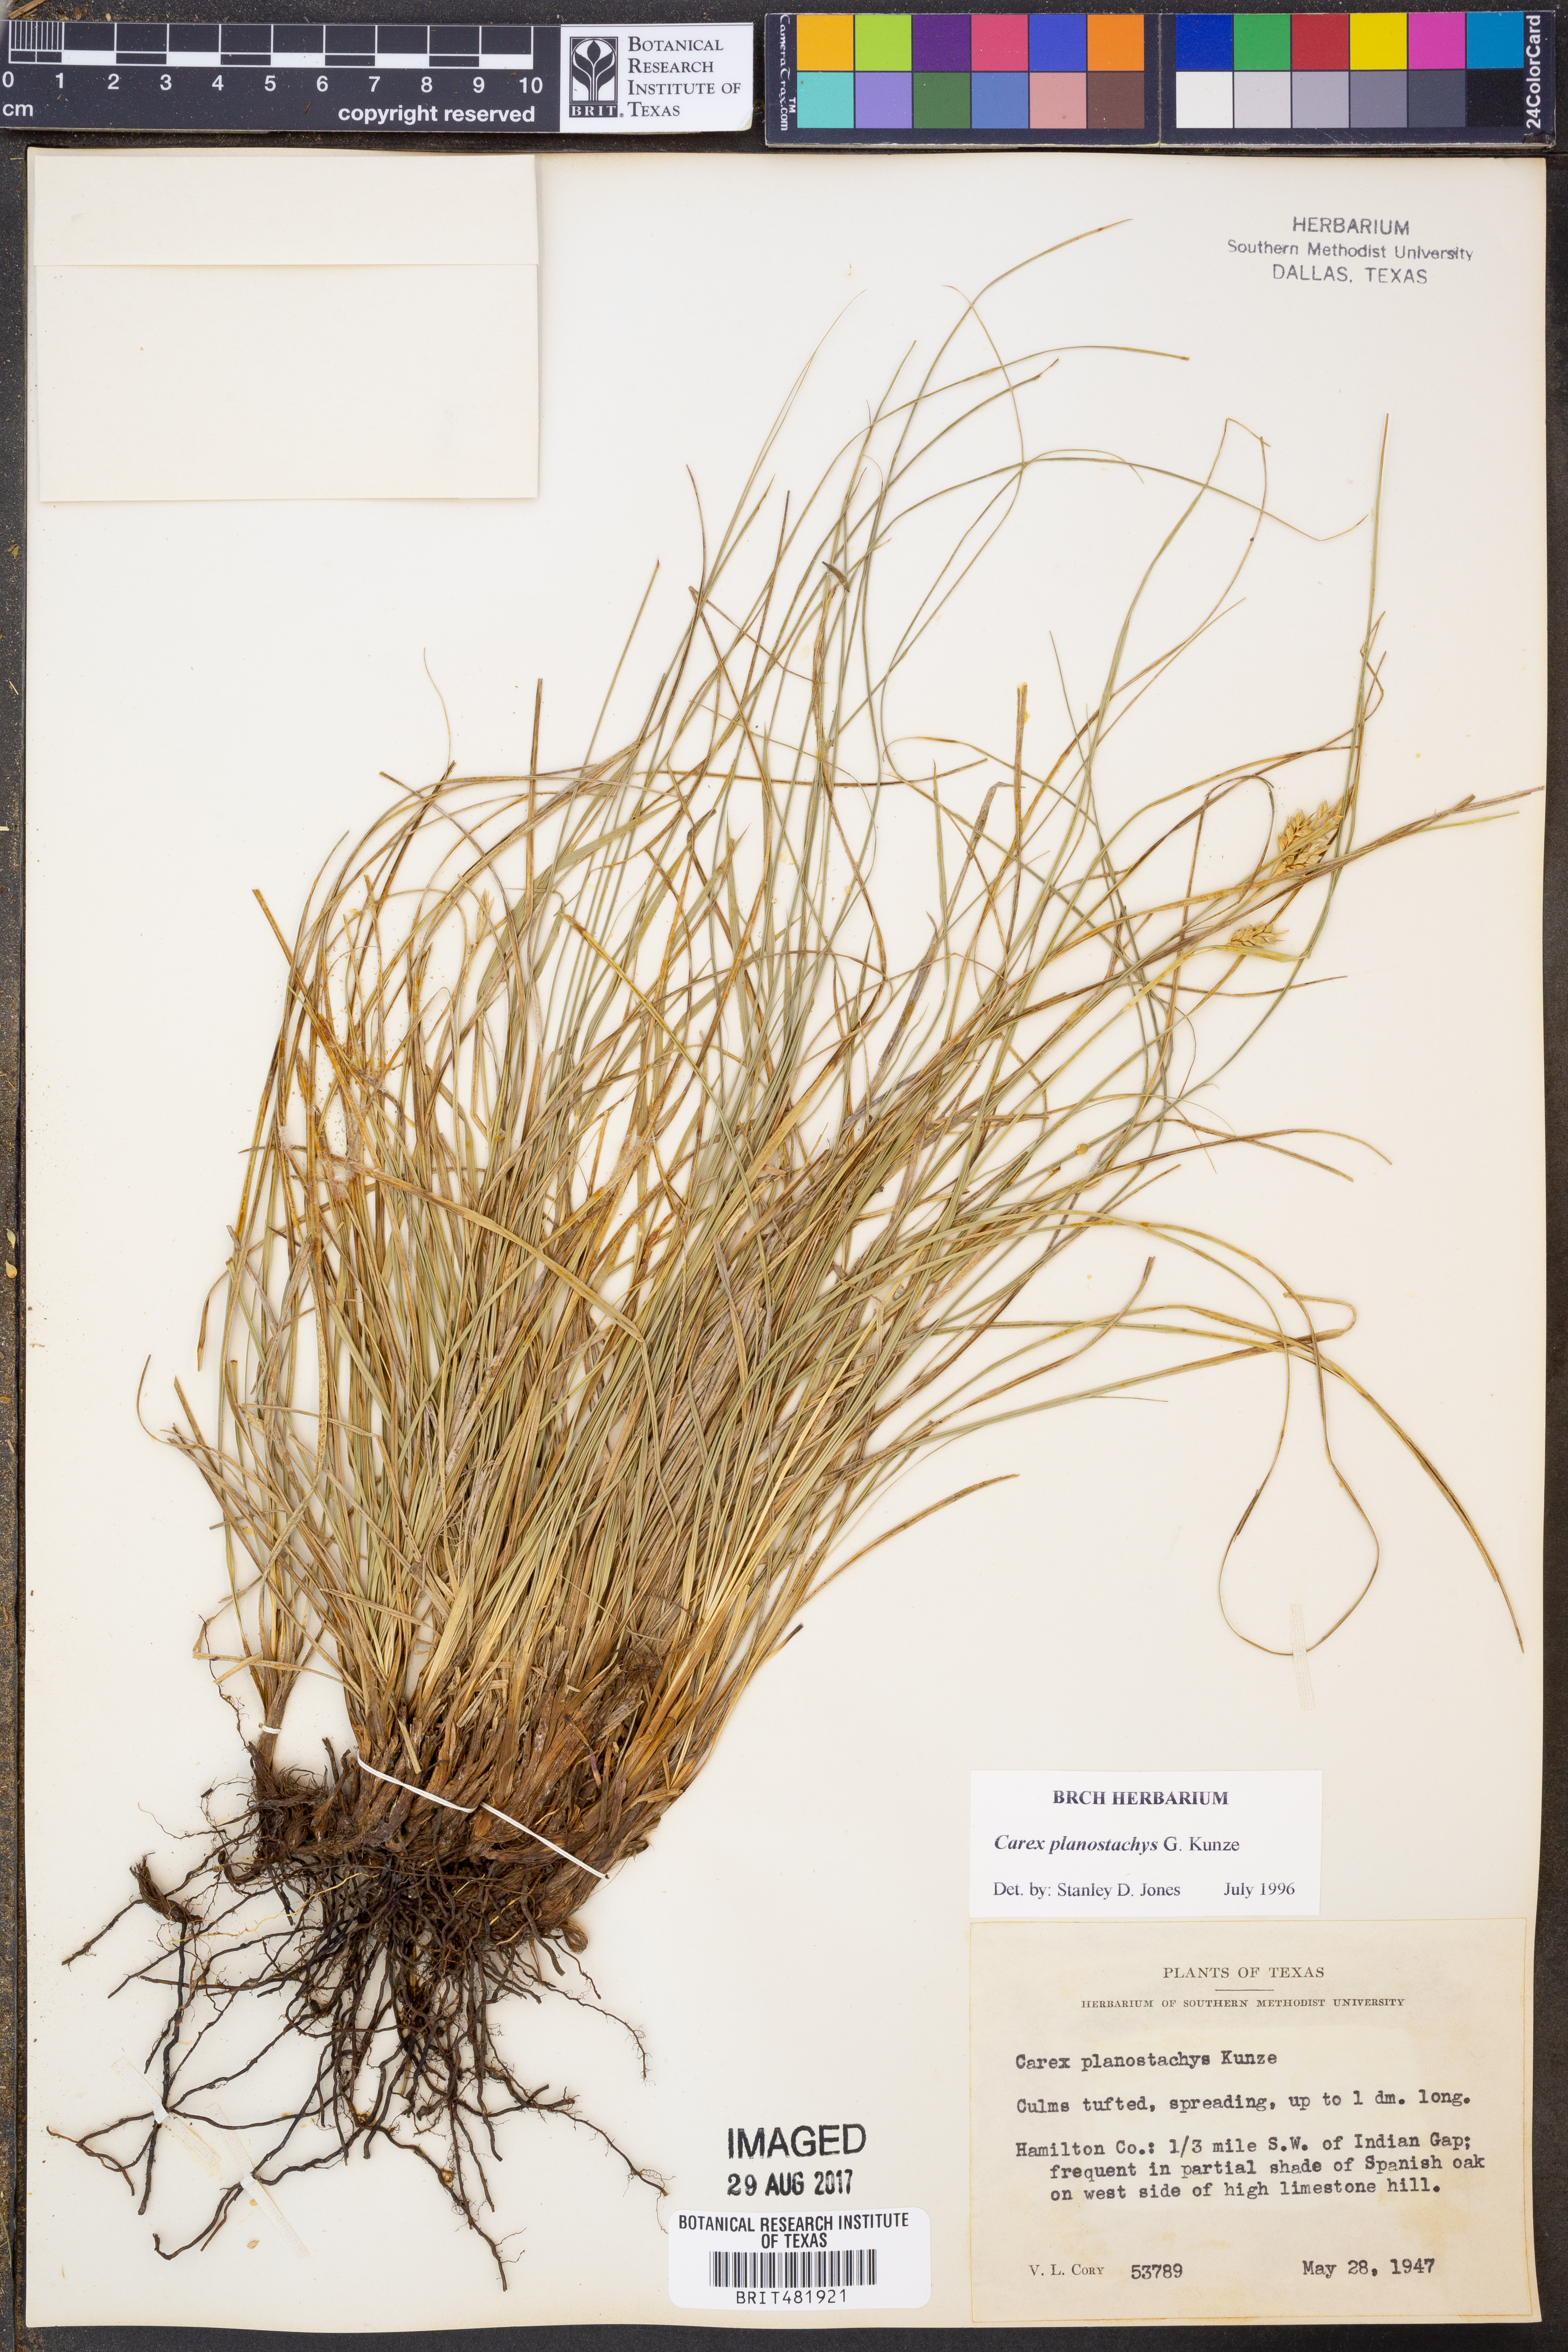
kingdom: Plantae
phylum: Tracheophyta
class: Liliopsida
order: Poales
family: Cyperaceae
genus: Carex
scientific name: Carex planostachys
